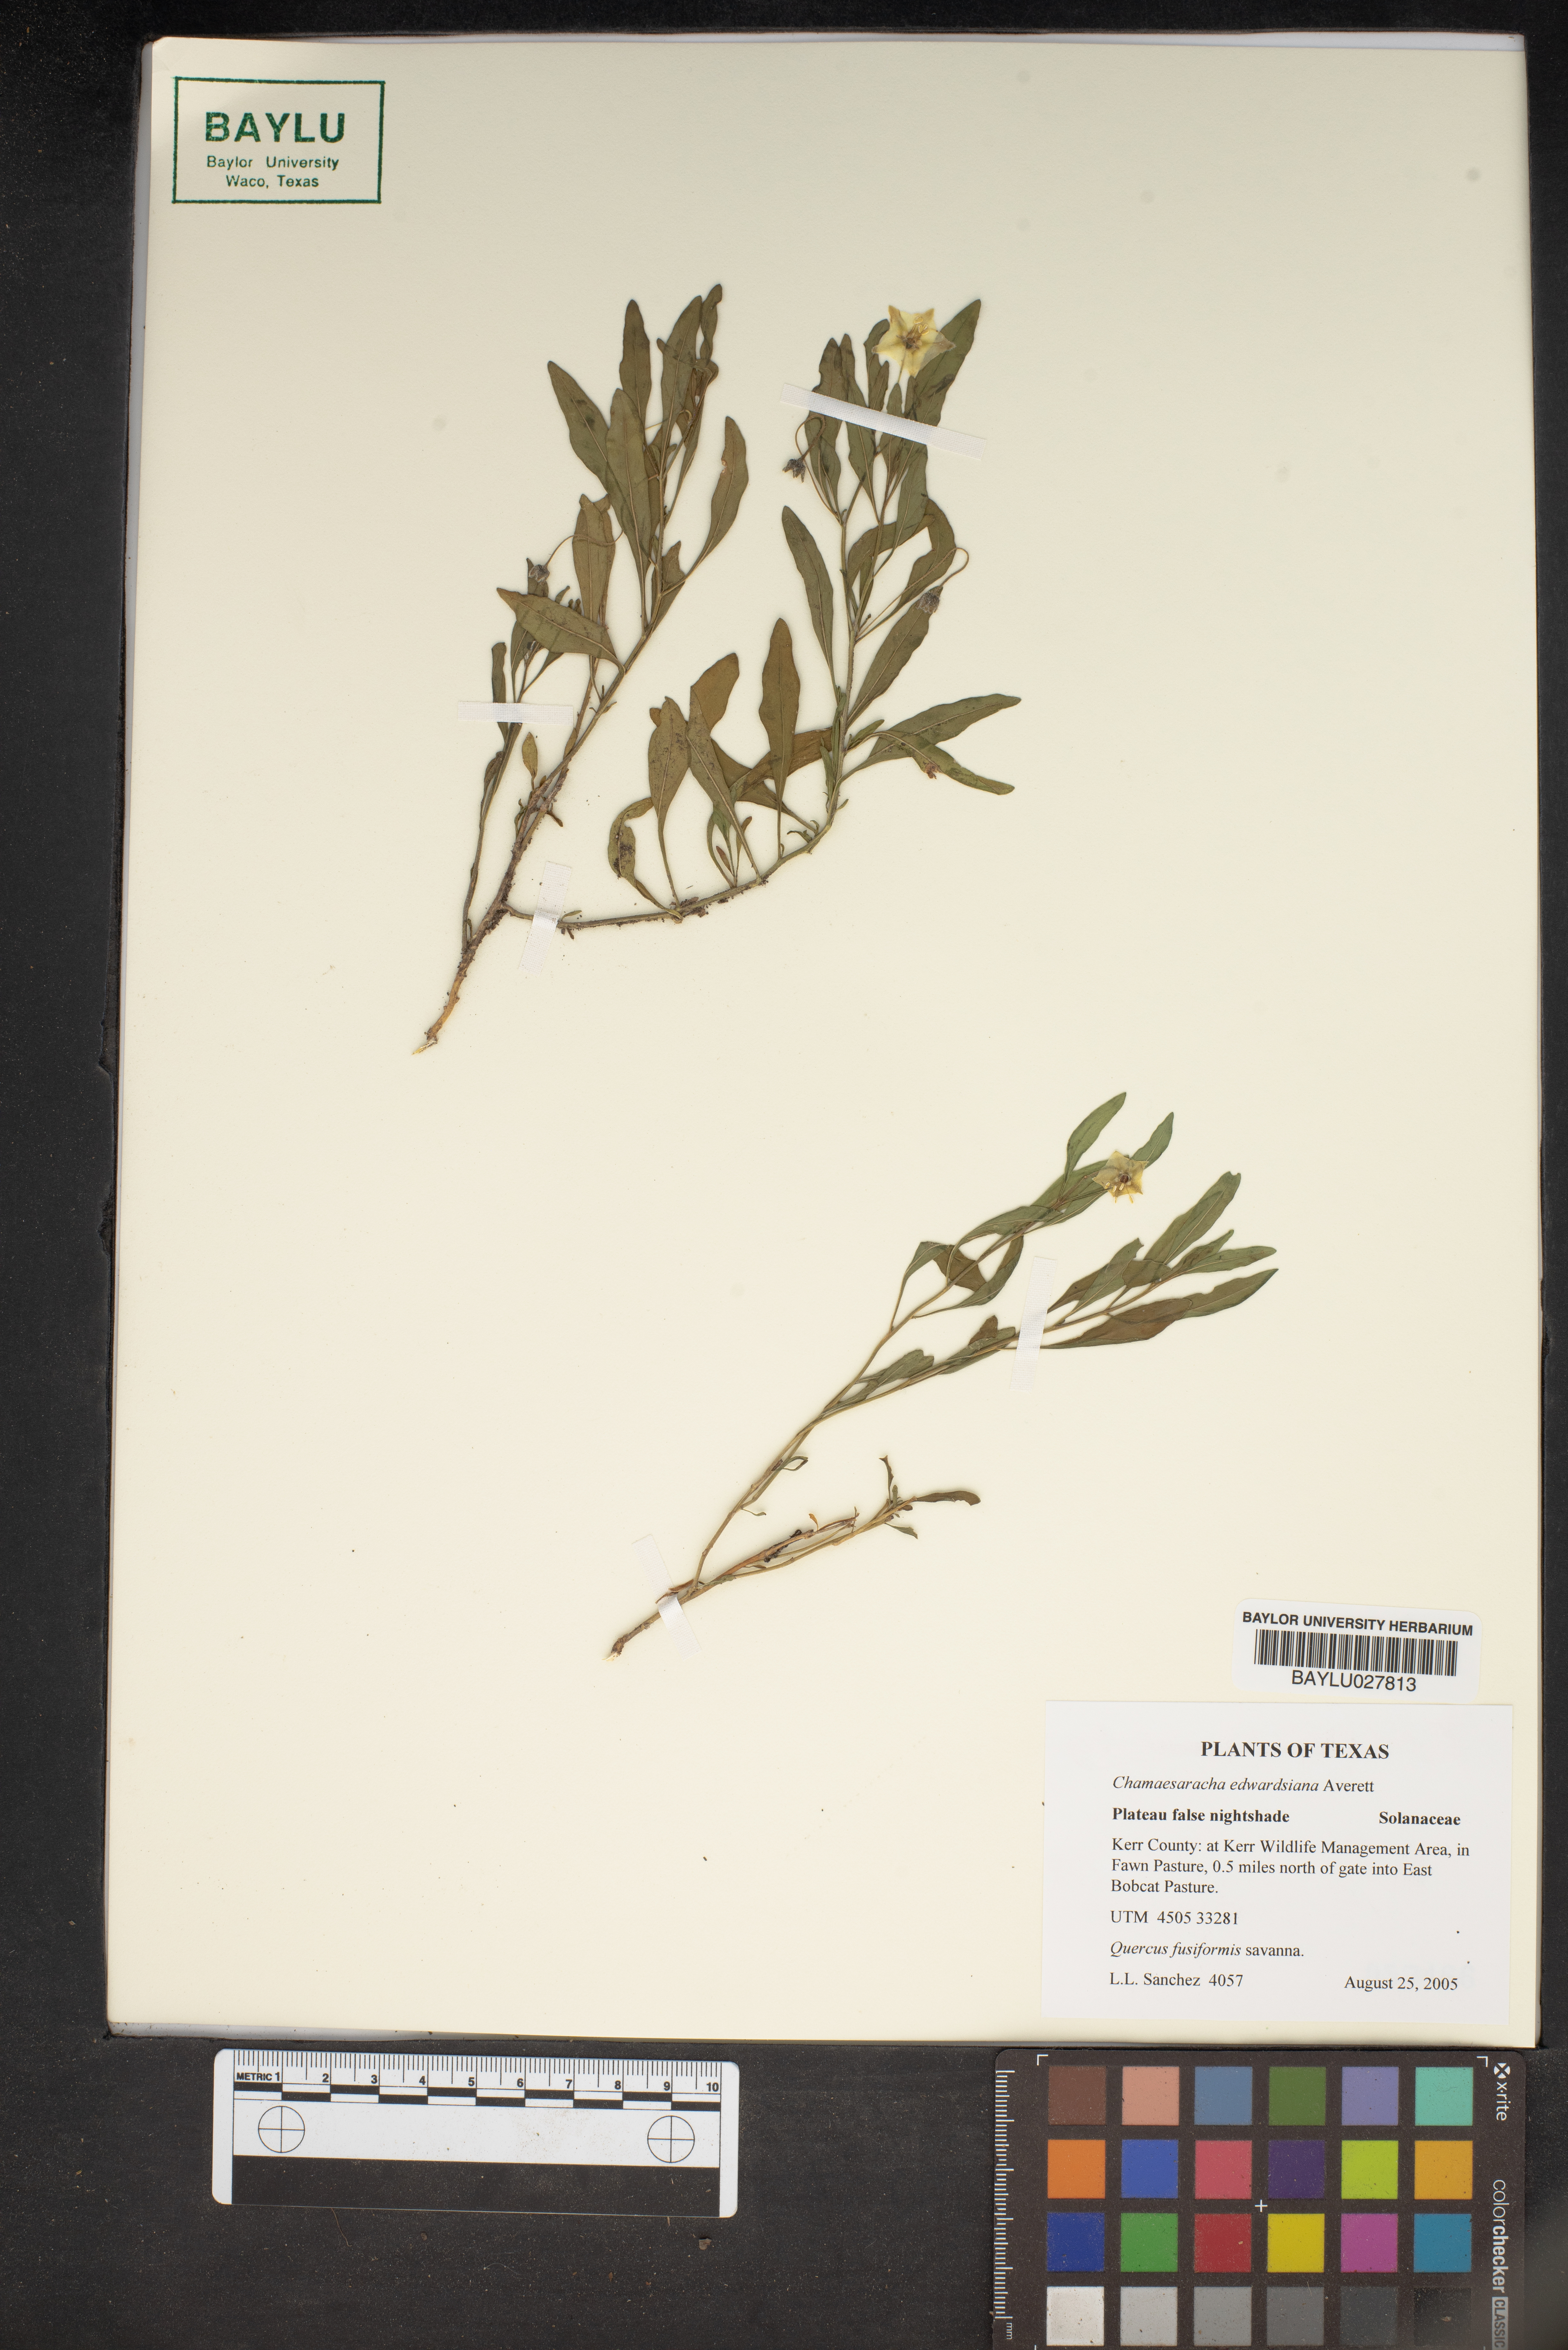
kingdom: Plantae
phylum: Tracheophyta
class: Magnoliopsida
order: Solanales
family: Solanaceae
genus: Chamaesaracha
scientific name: Chamaesaracha edwardsiana
